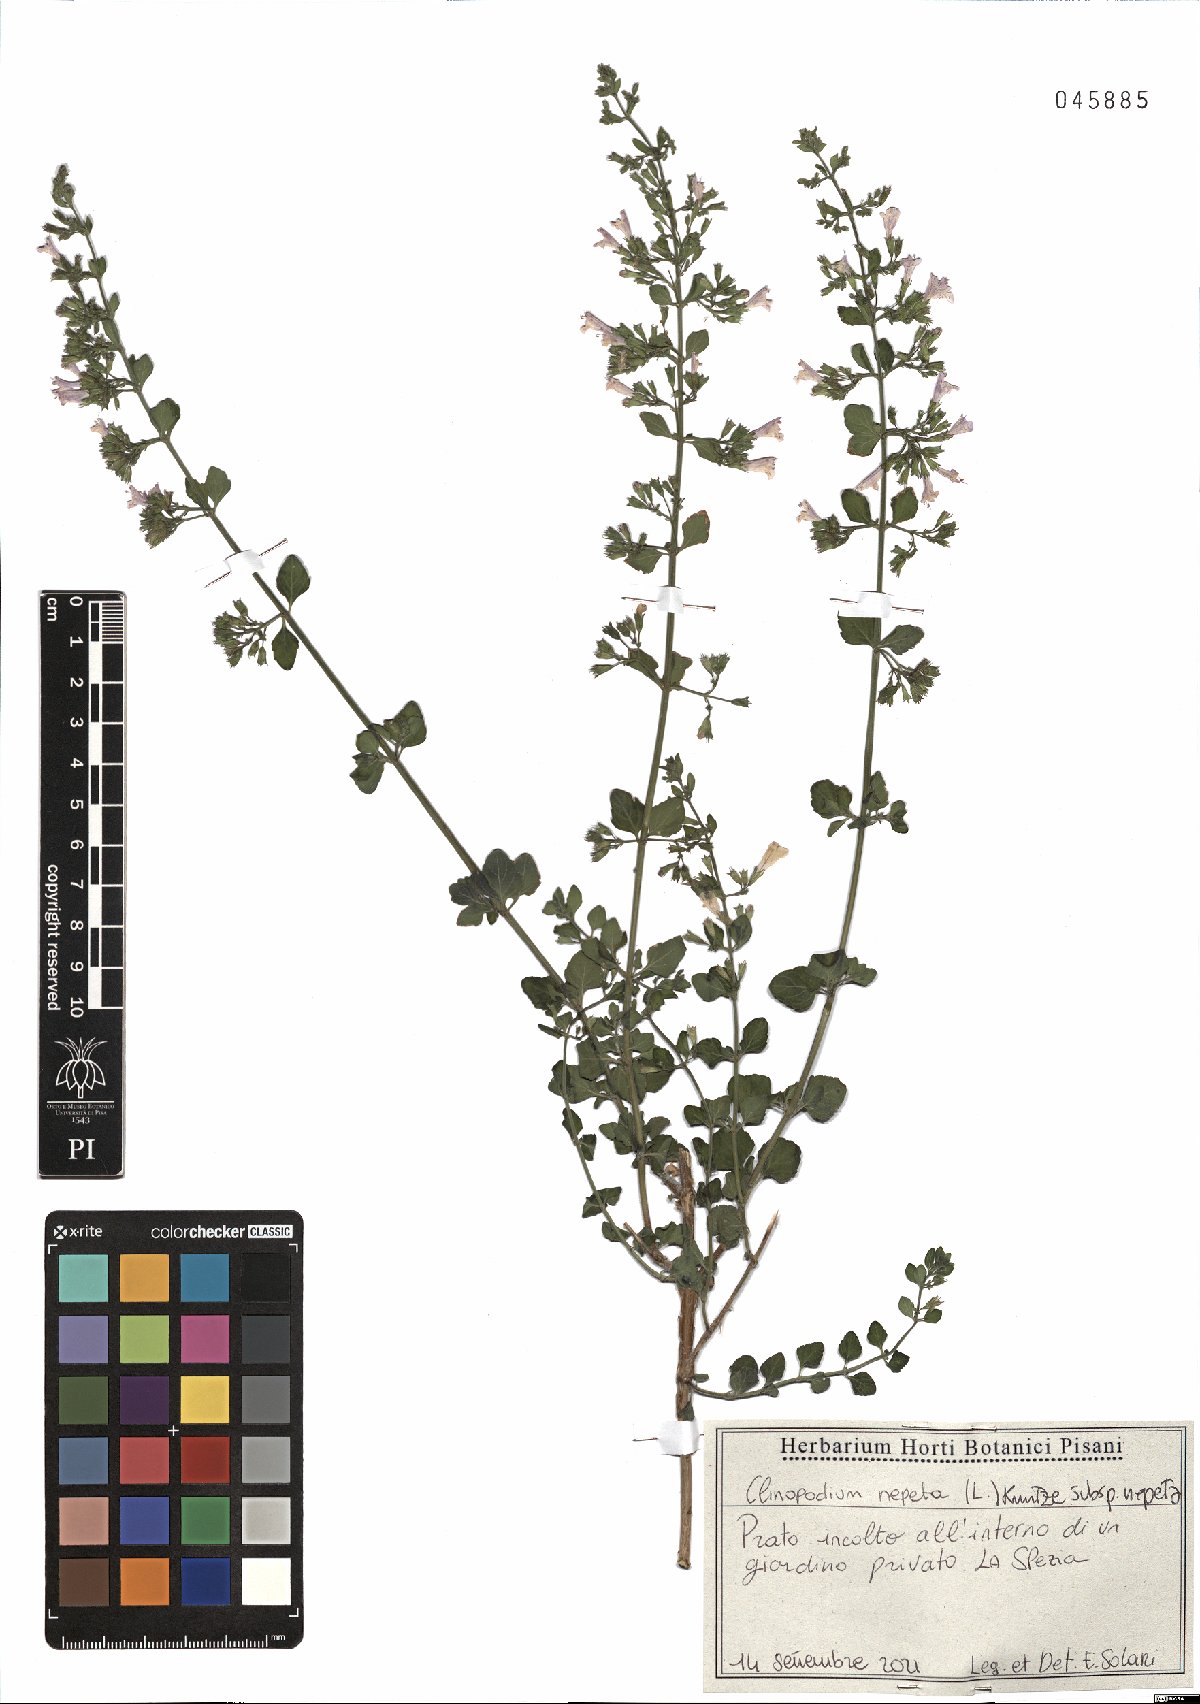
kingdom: Plantae
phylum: Tracheophyta
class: Magnoliopsida
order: Lamiales
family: Lamiaceae
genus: Clinopodium
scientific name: Clinopodium nepeta
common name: Lesser calamint
